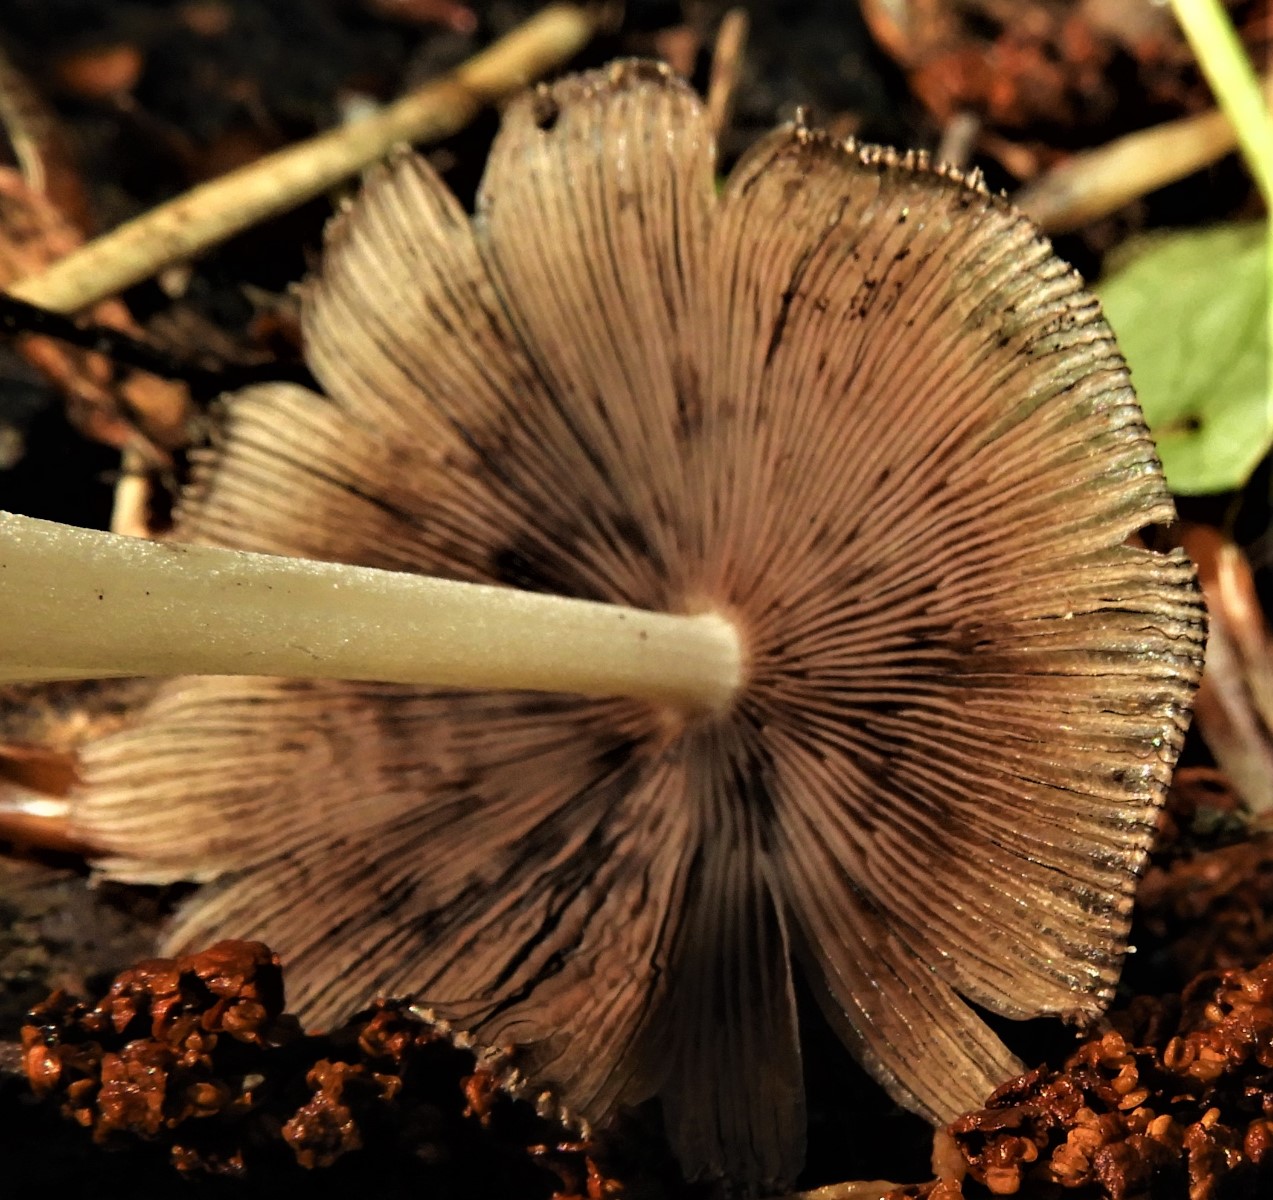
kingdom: Fungi
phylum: Basidiomycota
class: Agaricomycetes
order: Agaricales
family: Psathyrellaceae
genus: Coprinellus
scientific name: Coprinellus
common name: blækhat
